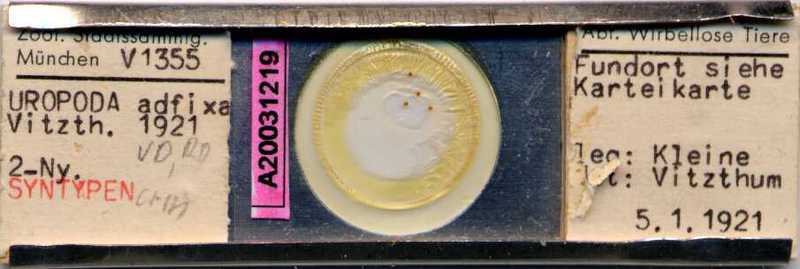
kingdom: Animalia
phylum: Arthropoda
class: Arachnida
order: Mesostigmata
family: Uropodidae
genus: Uropoda
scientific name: Uropoda
